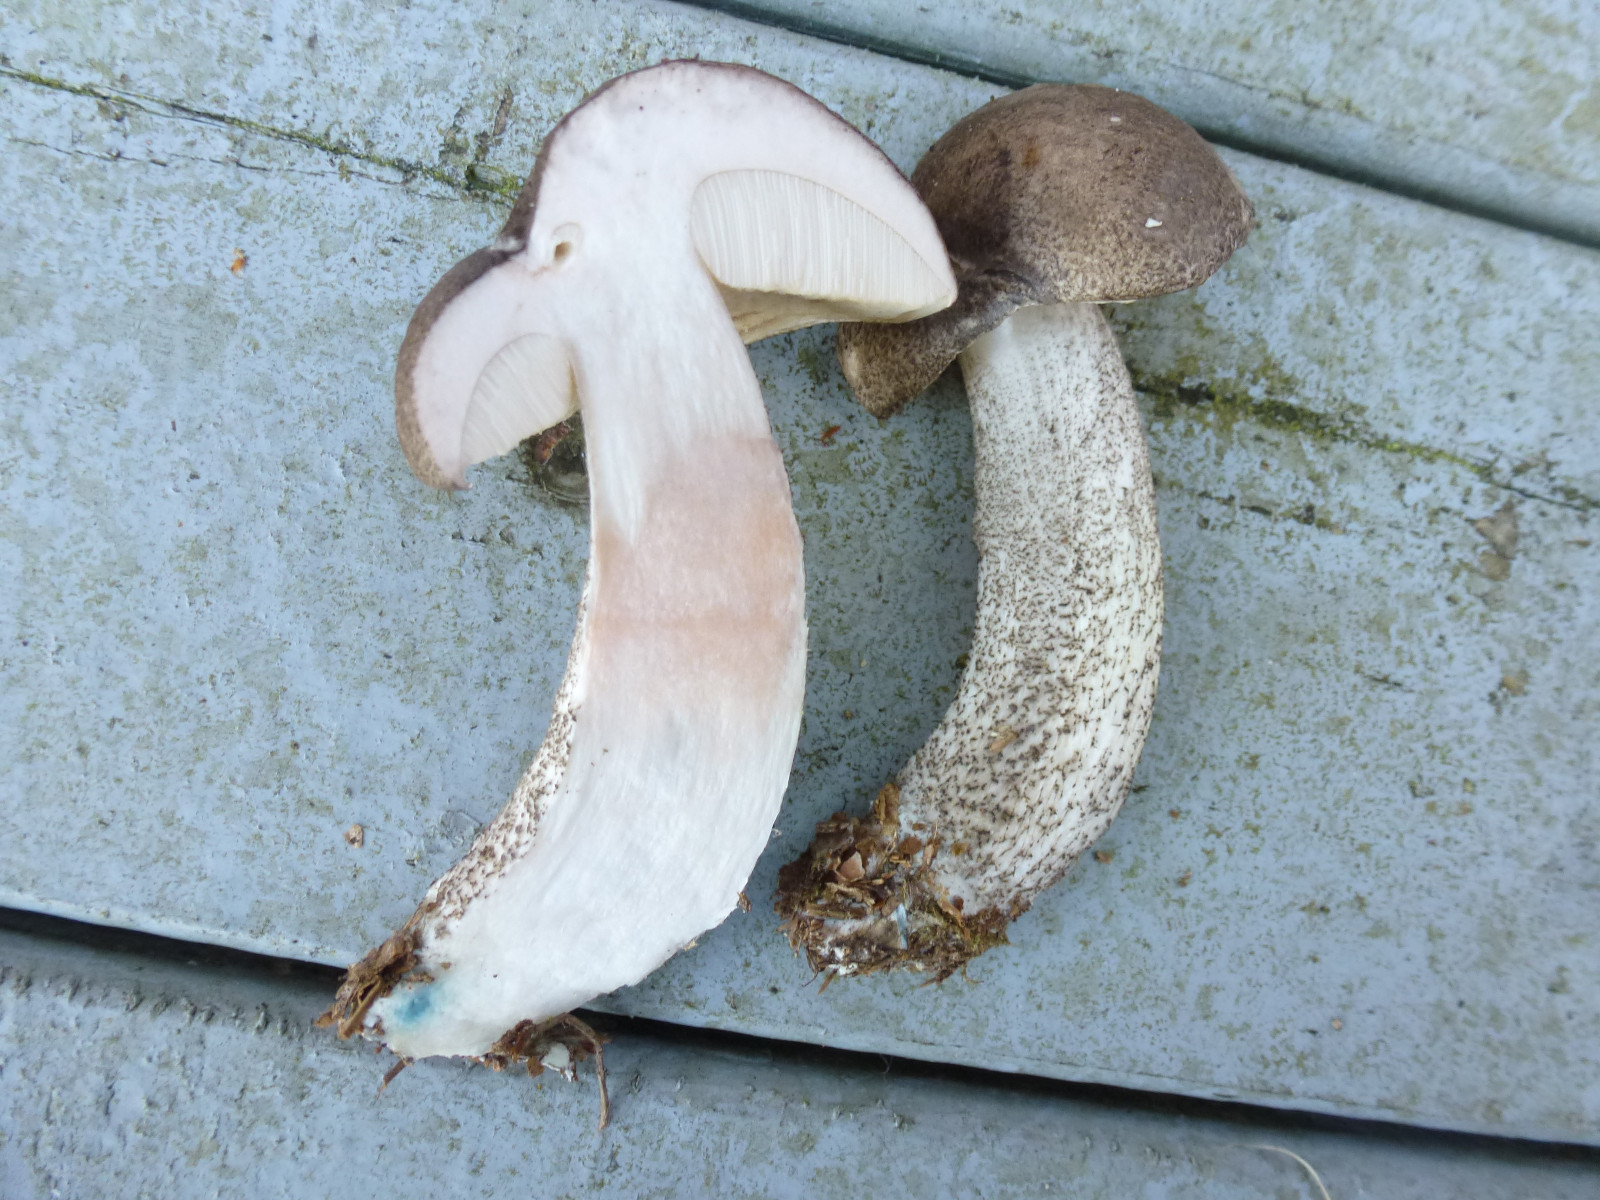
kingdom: Fungi
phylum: Basidiomycota
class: Agaricomycetes
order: Boletales
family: Boletaceae
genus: Leccinum
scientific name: Leccinum variicolor
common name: flammet skælrørhat
